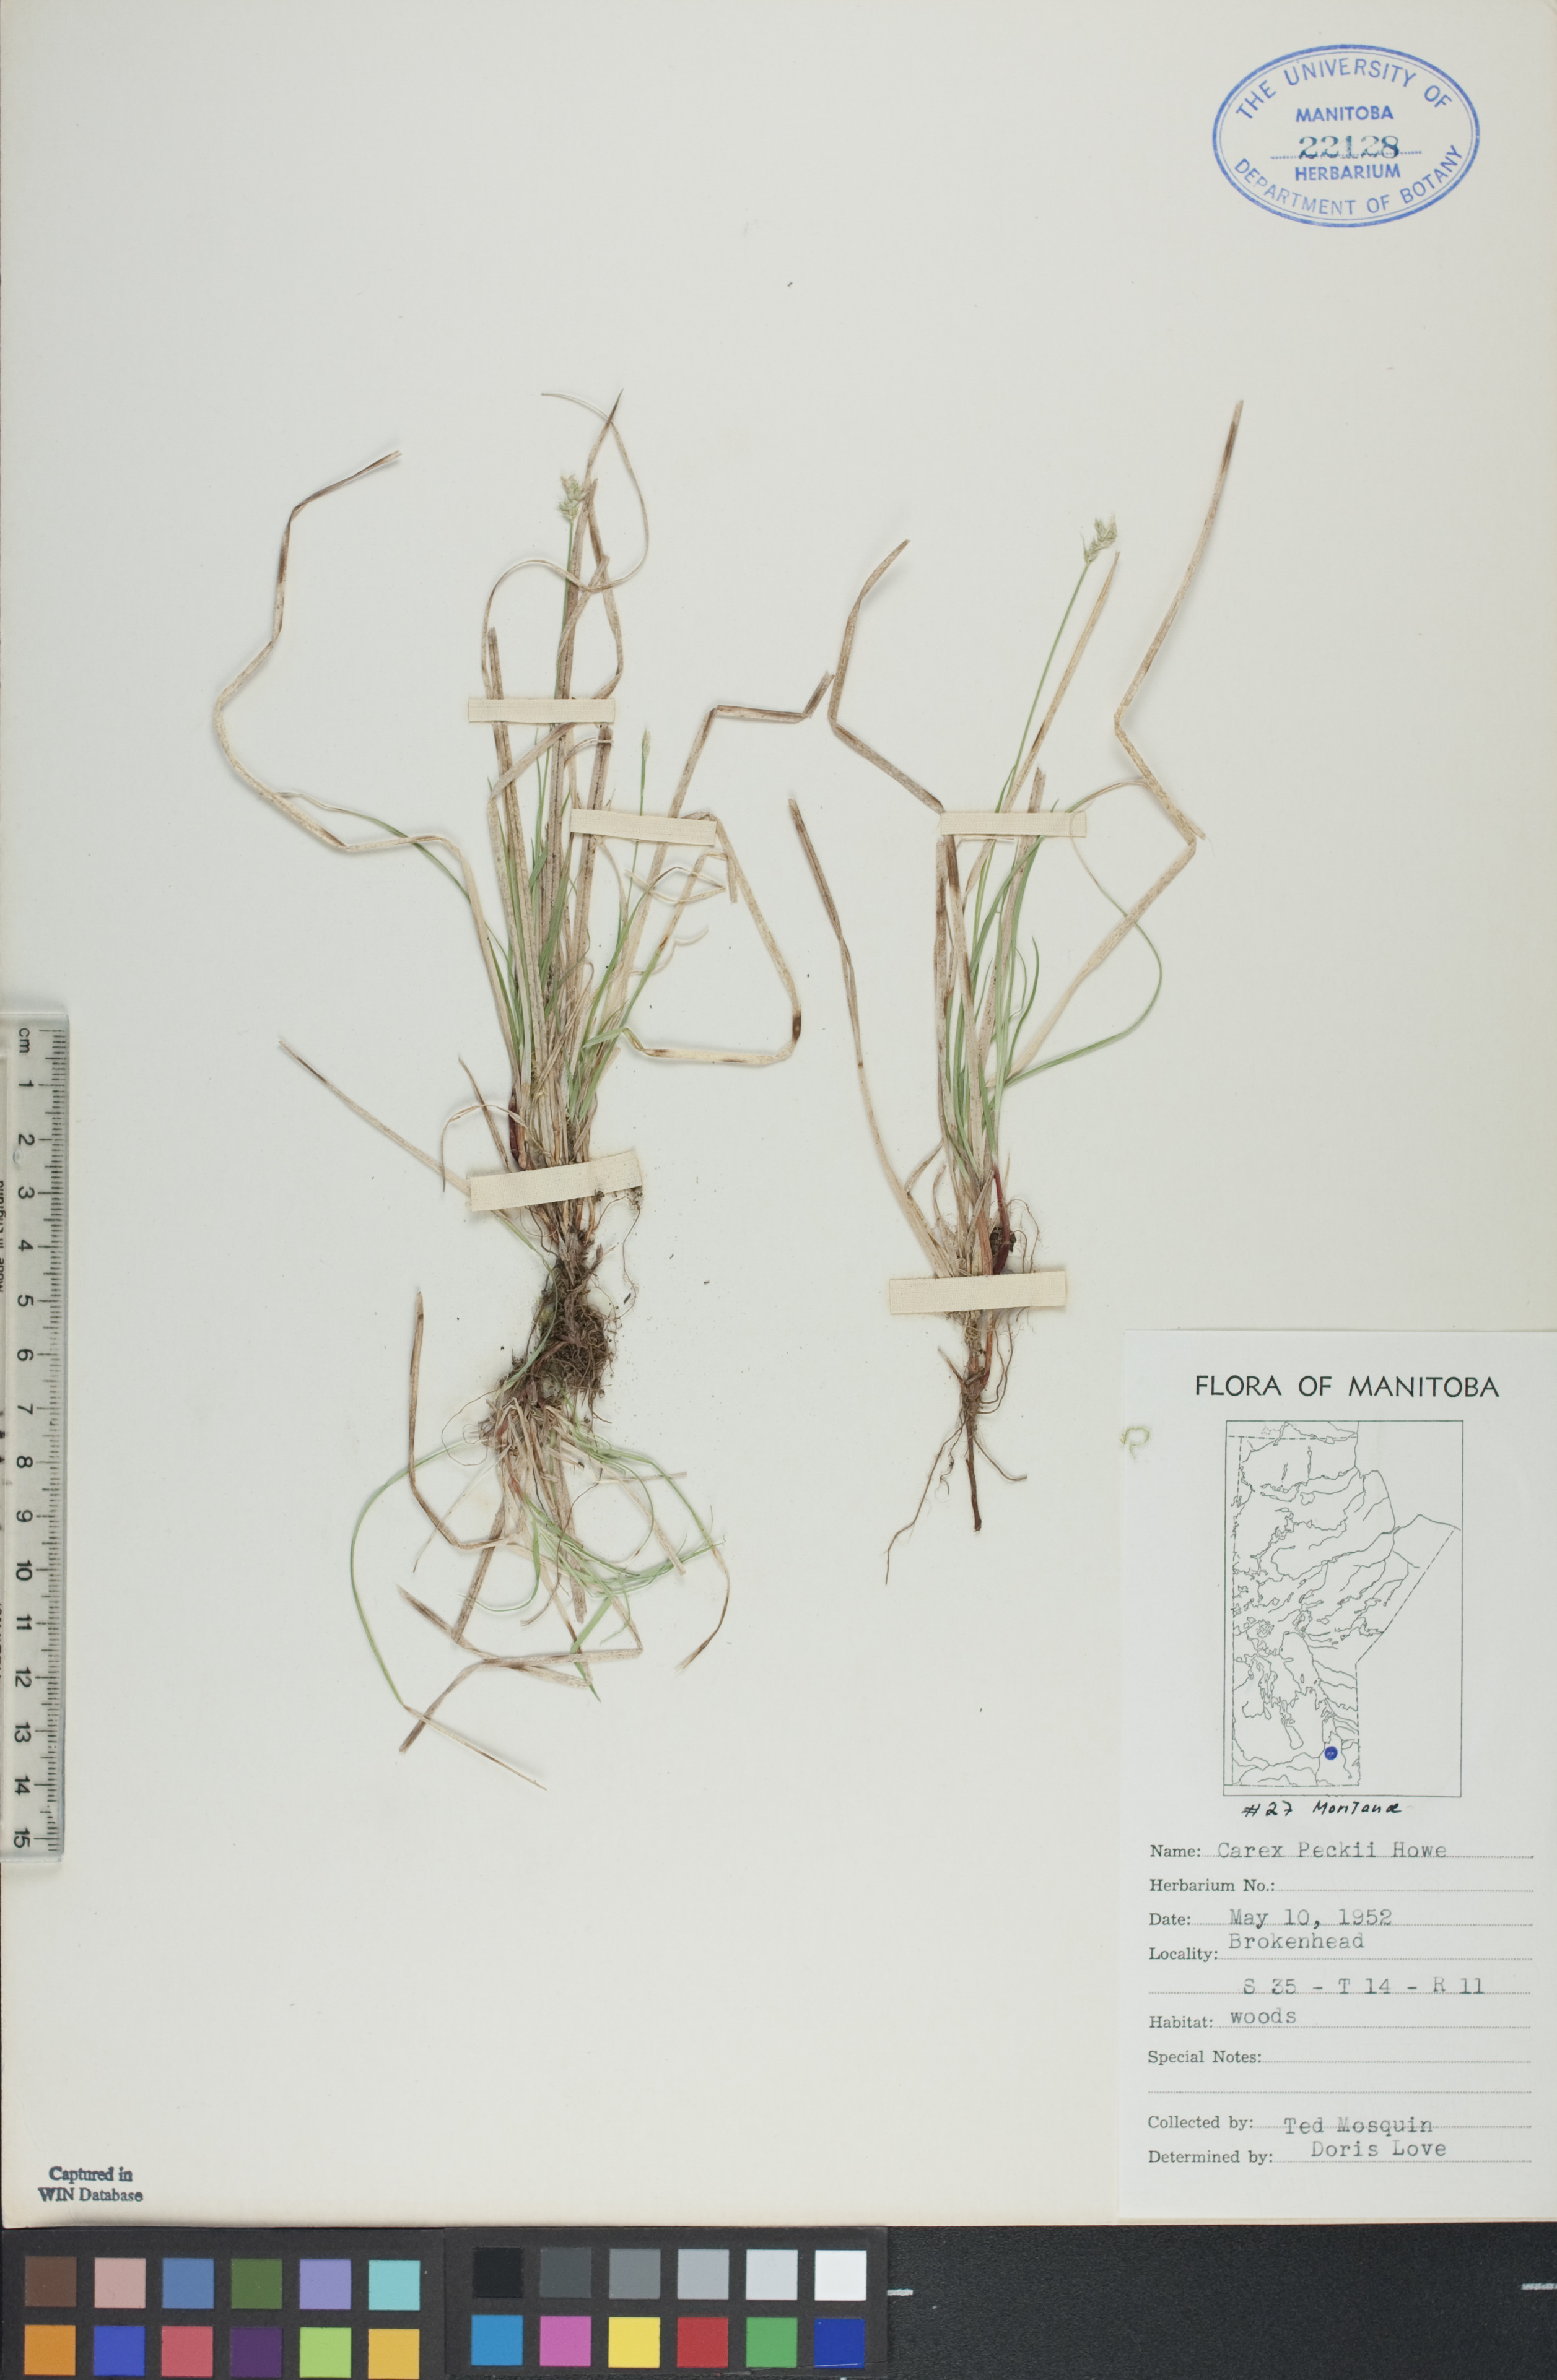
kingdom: Plantae
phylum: Tracheophyta
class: Liliopsida
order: Poales
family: Cyperaceae
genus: Carex
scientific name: Carex peckii
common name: Peck's oak sedge
